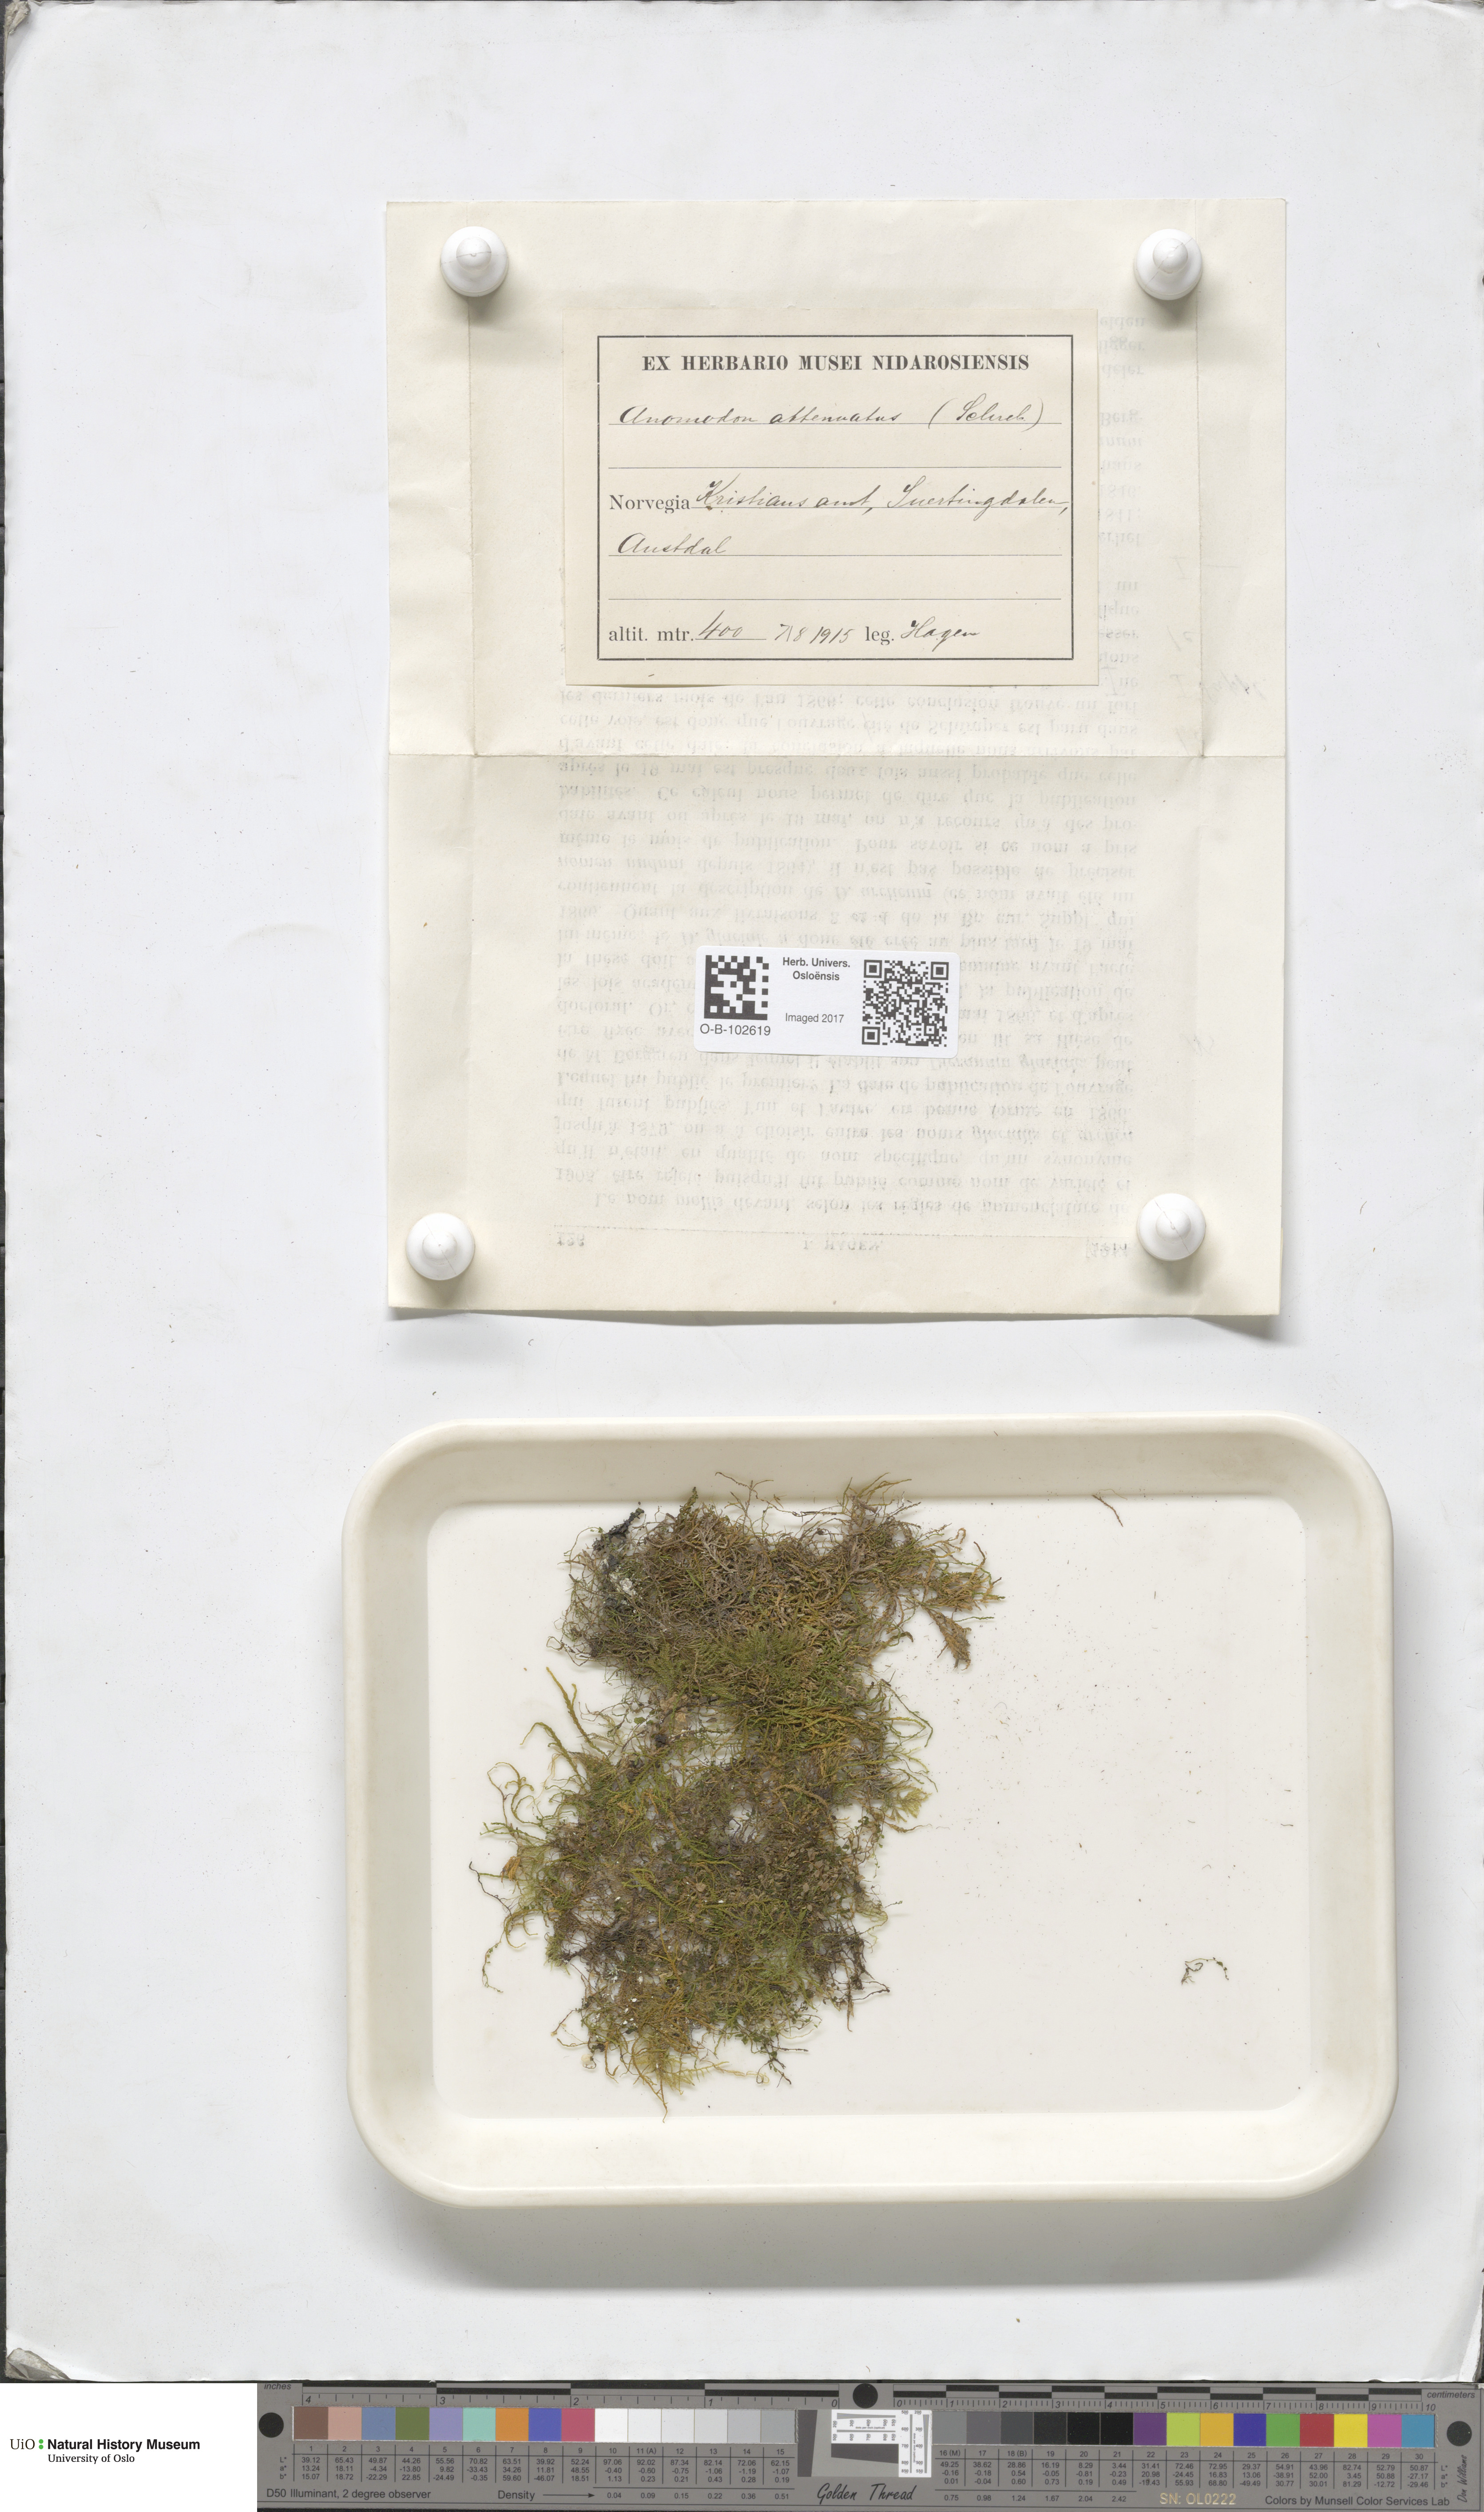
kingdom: Plantae
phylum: Bryophyta
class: Bryopsida
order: Hypnales
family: Neckeraceae
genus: Pseudanomodon
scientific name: Pseudanomodon attenuatus
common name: Tree-skirt moss
